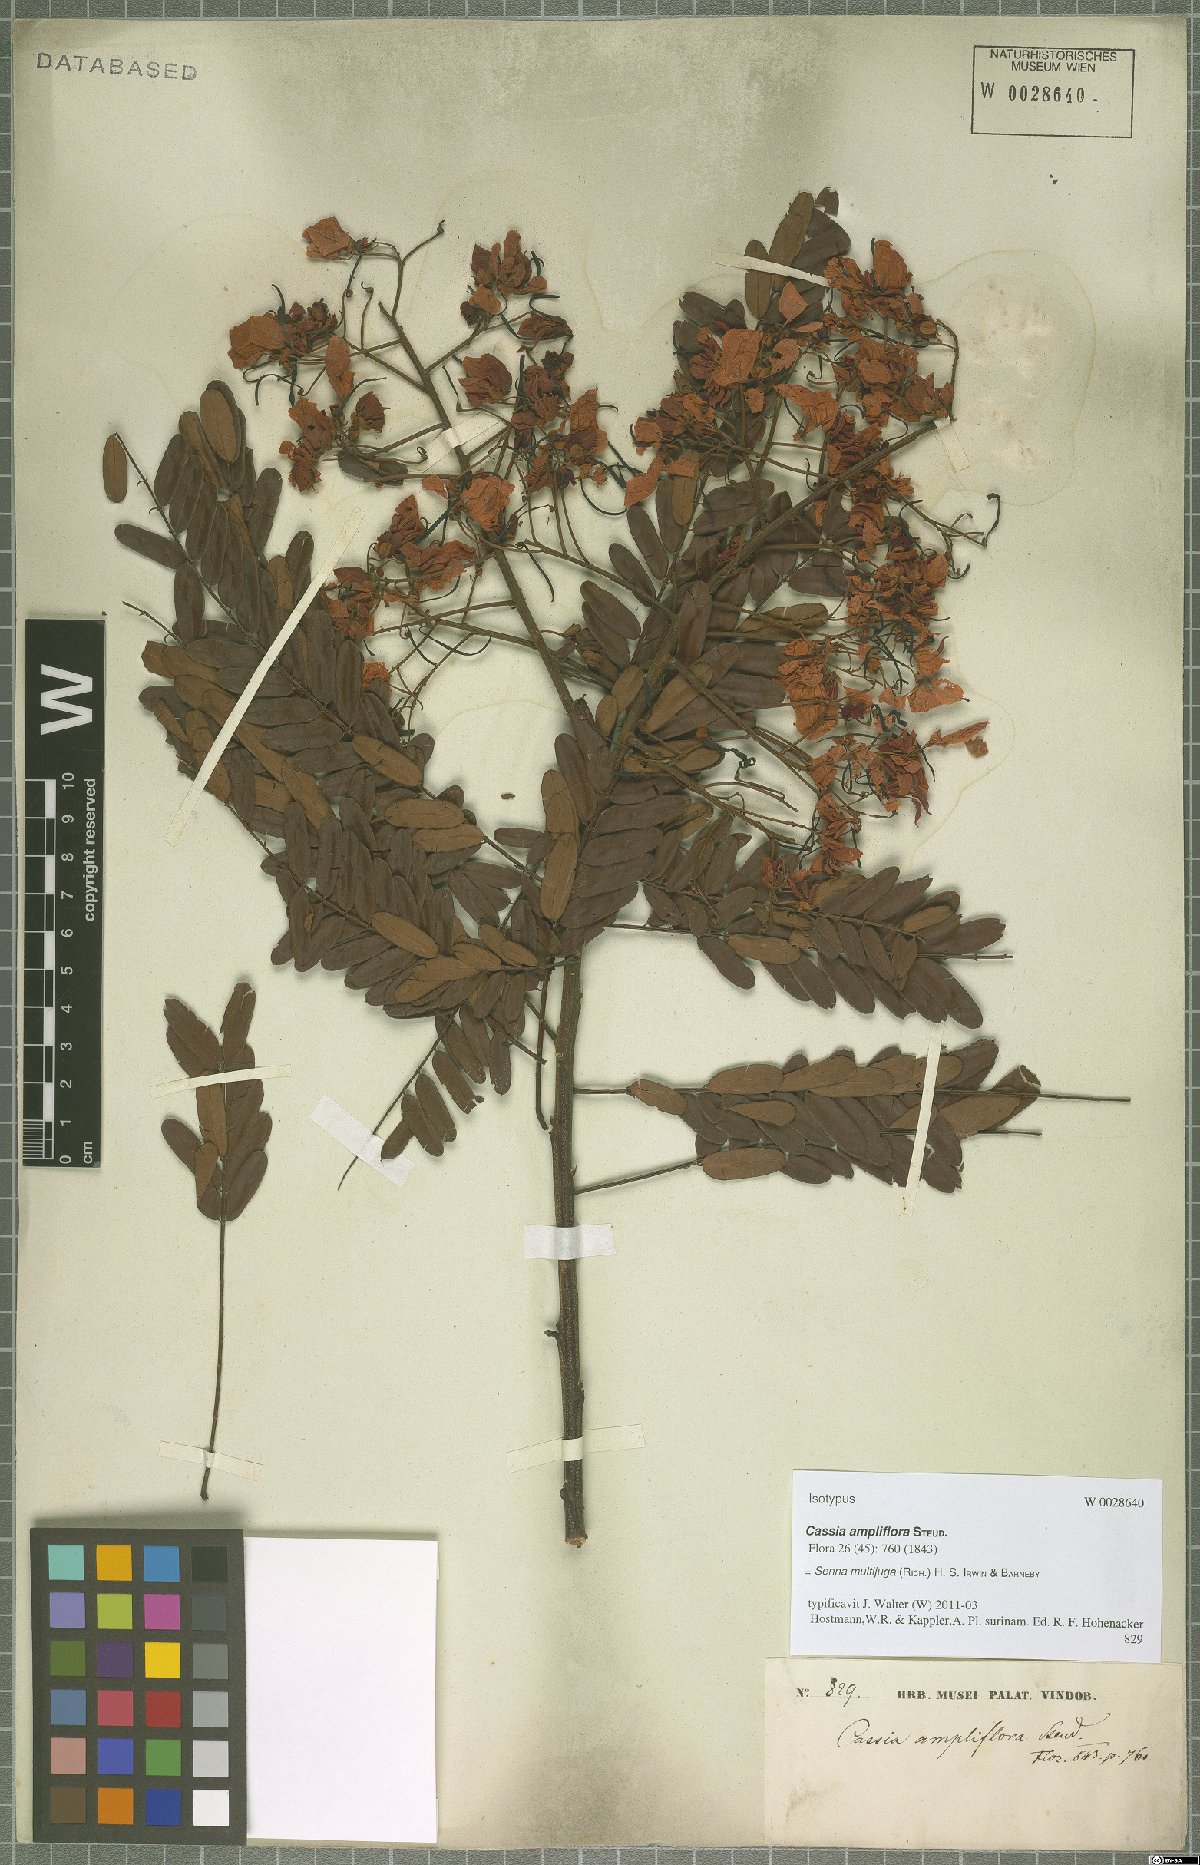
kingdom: Plantae
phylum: Tracheophyta
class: Magnoliopsida
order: Fabales
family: Fabaceae
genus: Senna
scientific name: Senna multijuga
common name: False sicklepod
